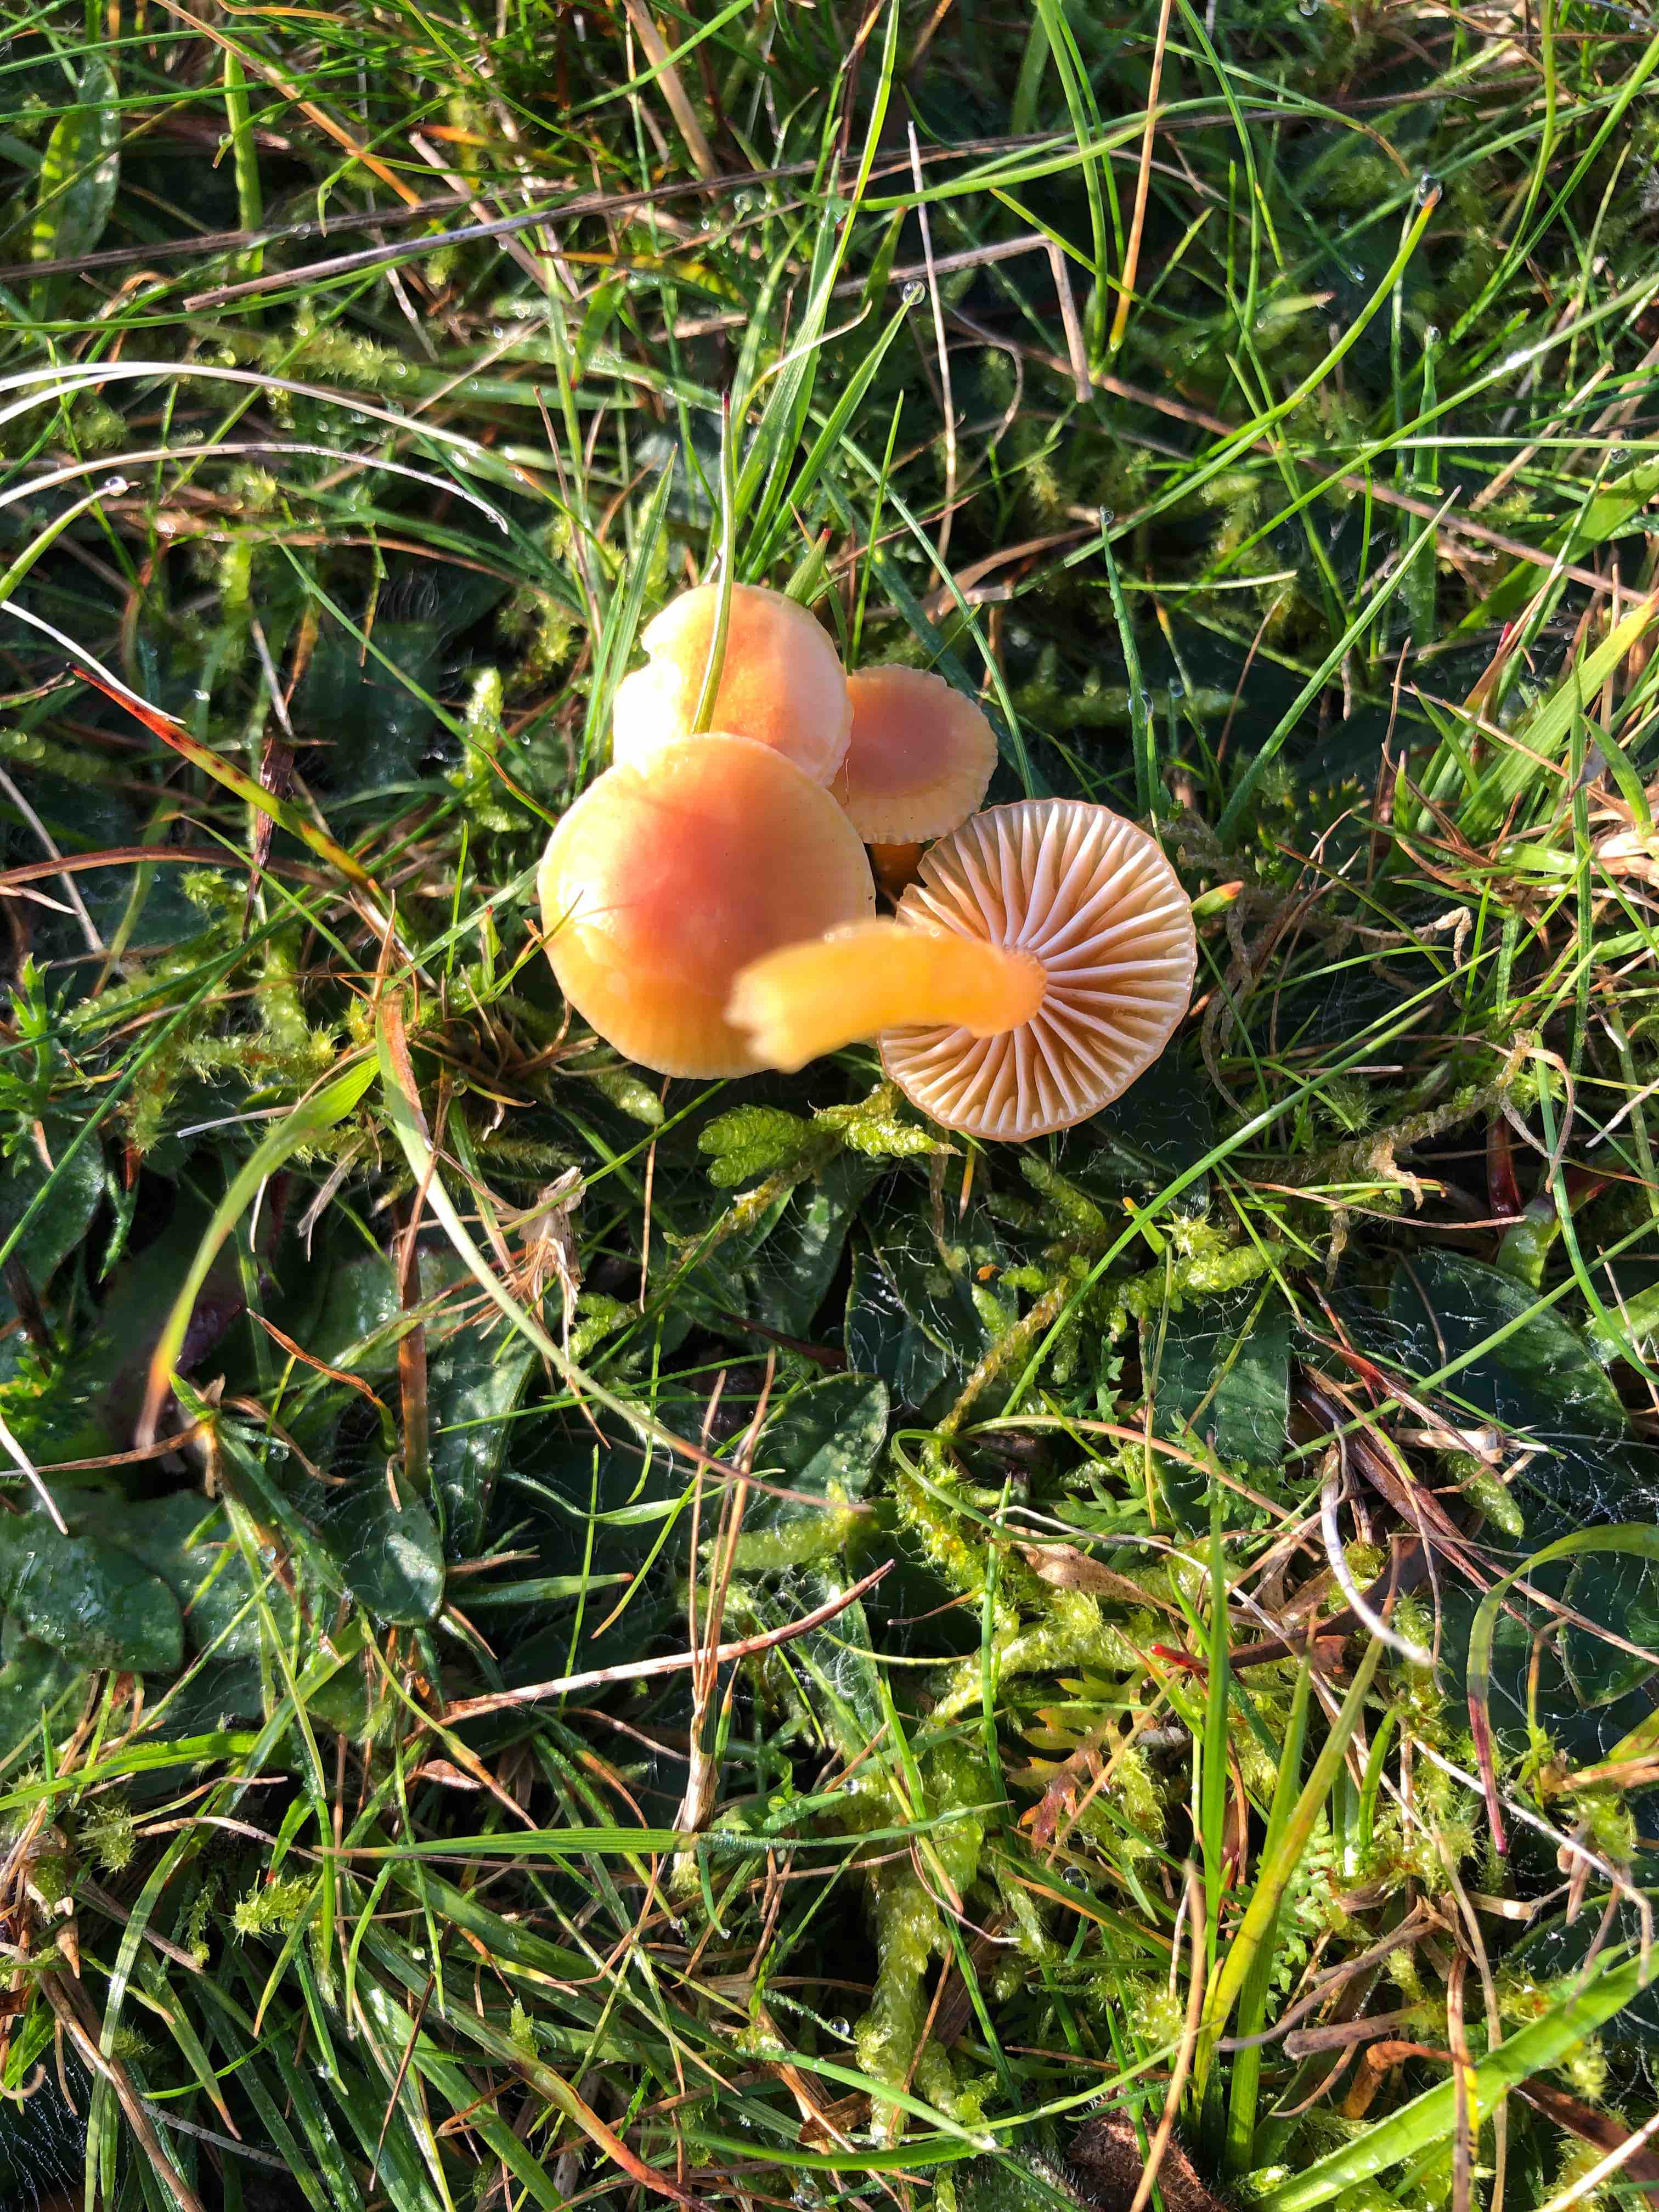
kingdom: Fungi
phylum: Basidiomycota
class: Agaricomycetes
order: Agaricales
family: Hygrophoraceae
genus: Gliophorus
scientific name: Gliophorus laetus
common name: brusk-vokshat
